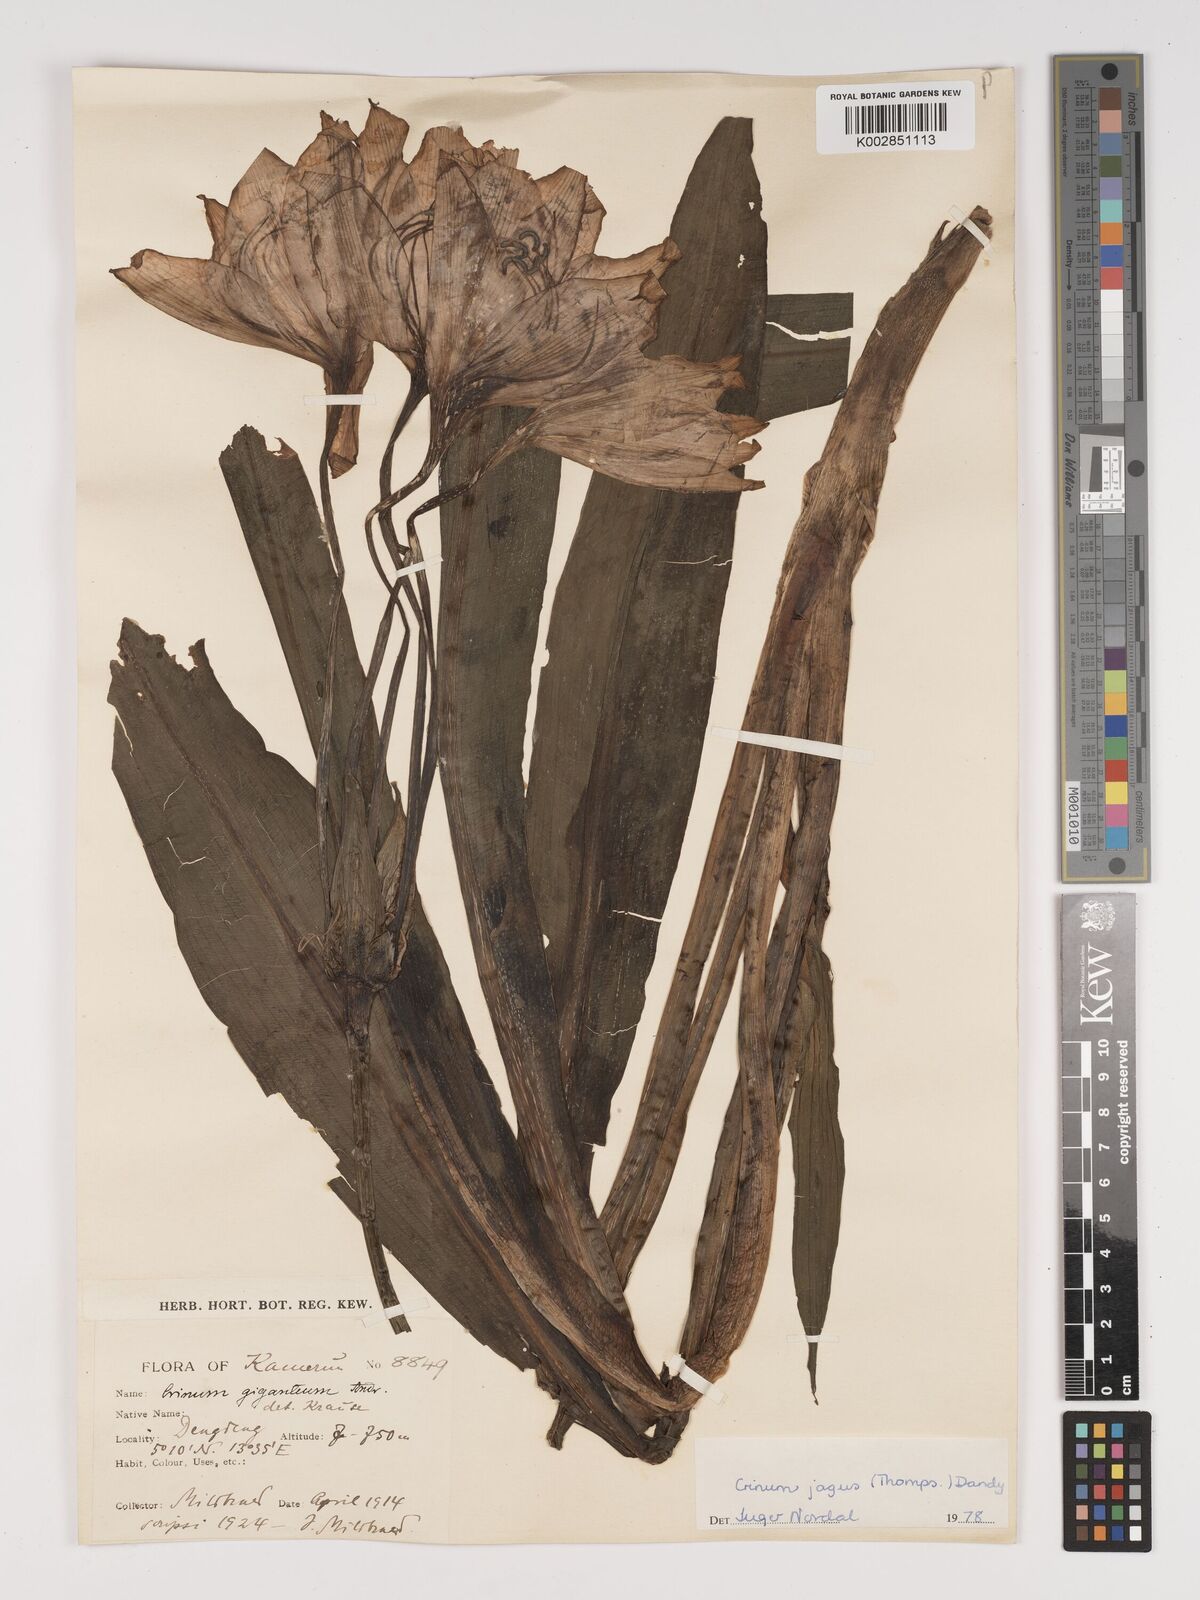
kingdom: Plantae
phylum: Tracheophyta
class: Liliopsida
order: Asparagales
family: Amaryllidaceae
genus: Crinum
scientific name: Crinum jagus
